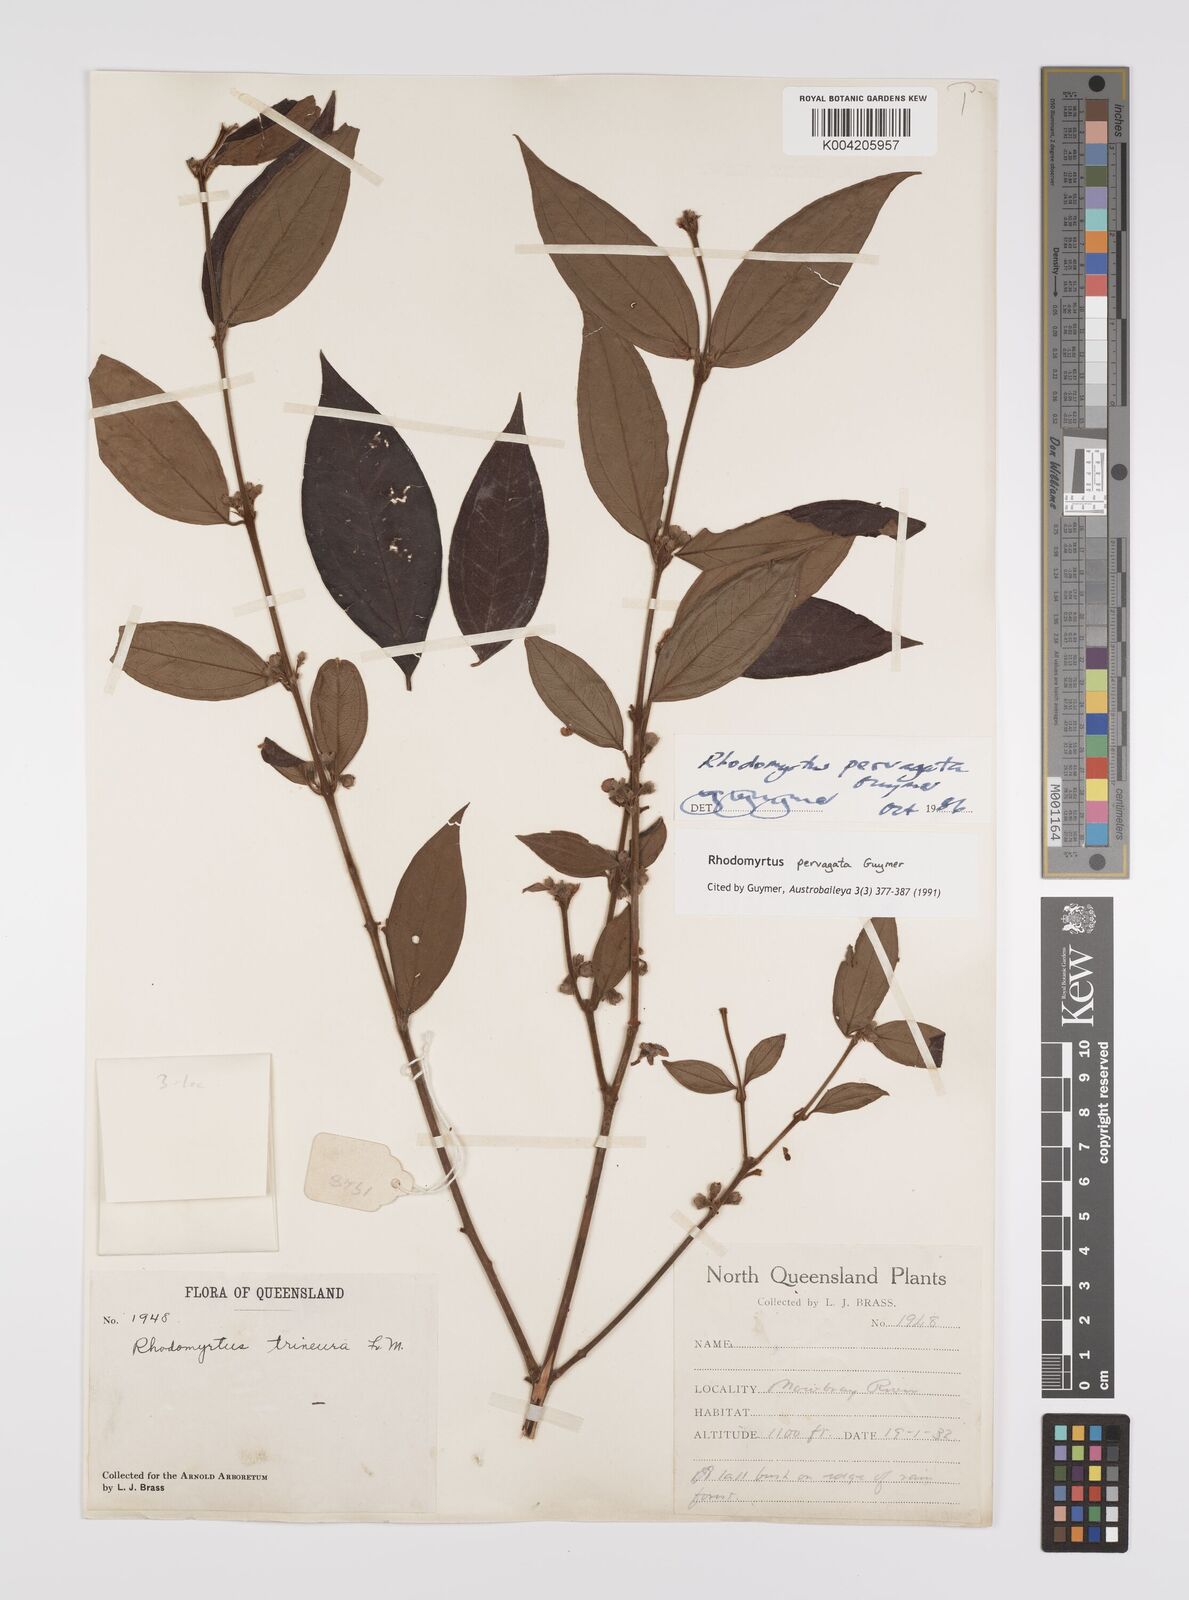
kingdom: Plantae
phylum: Tracheophyta
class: Magnoliopsida
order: Myrtales
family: Myrtaceae
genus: Rhodomyrtus
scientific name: Rhodomyrtus pervagata
